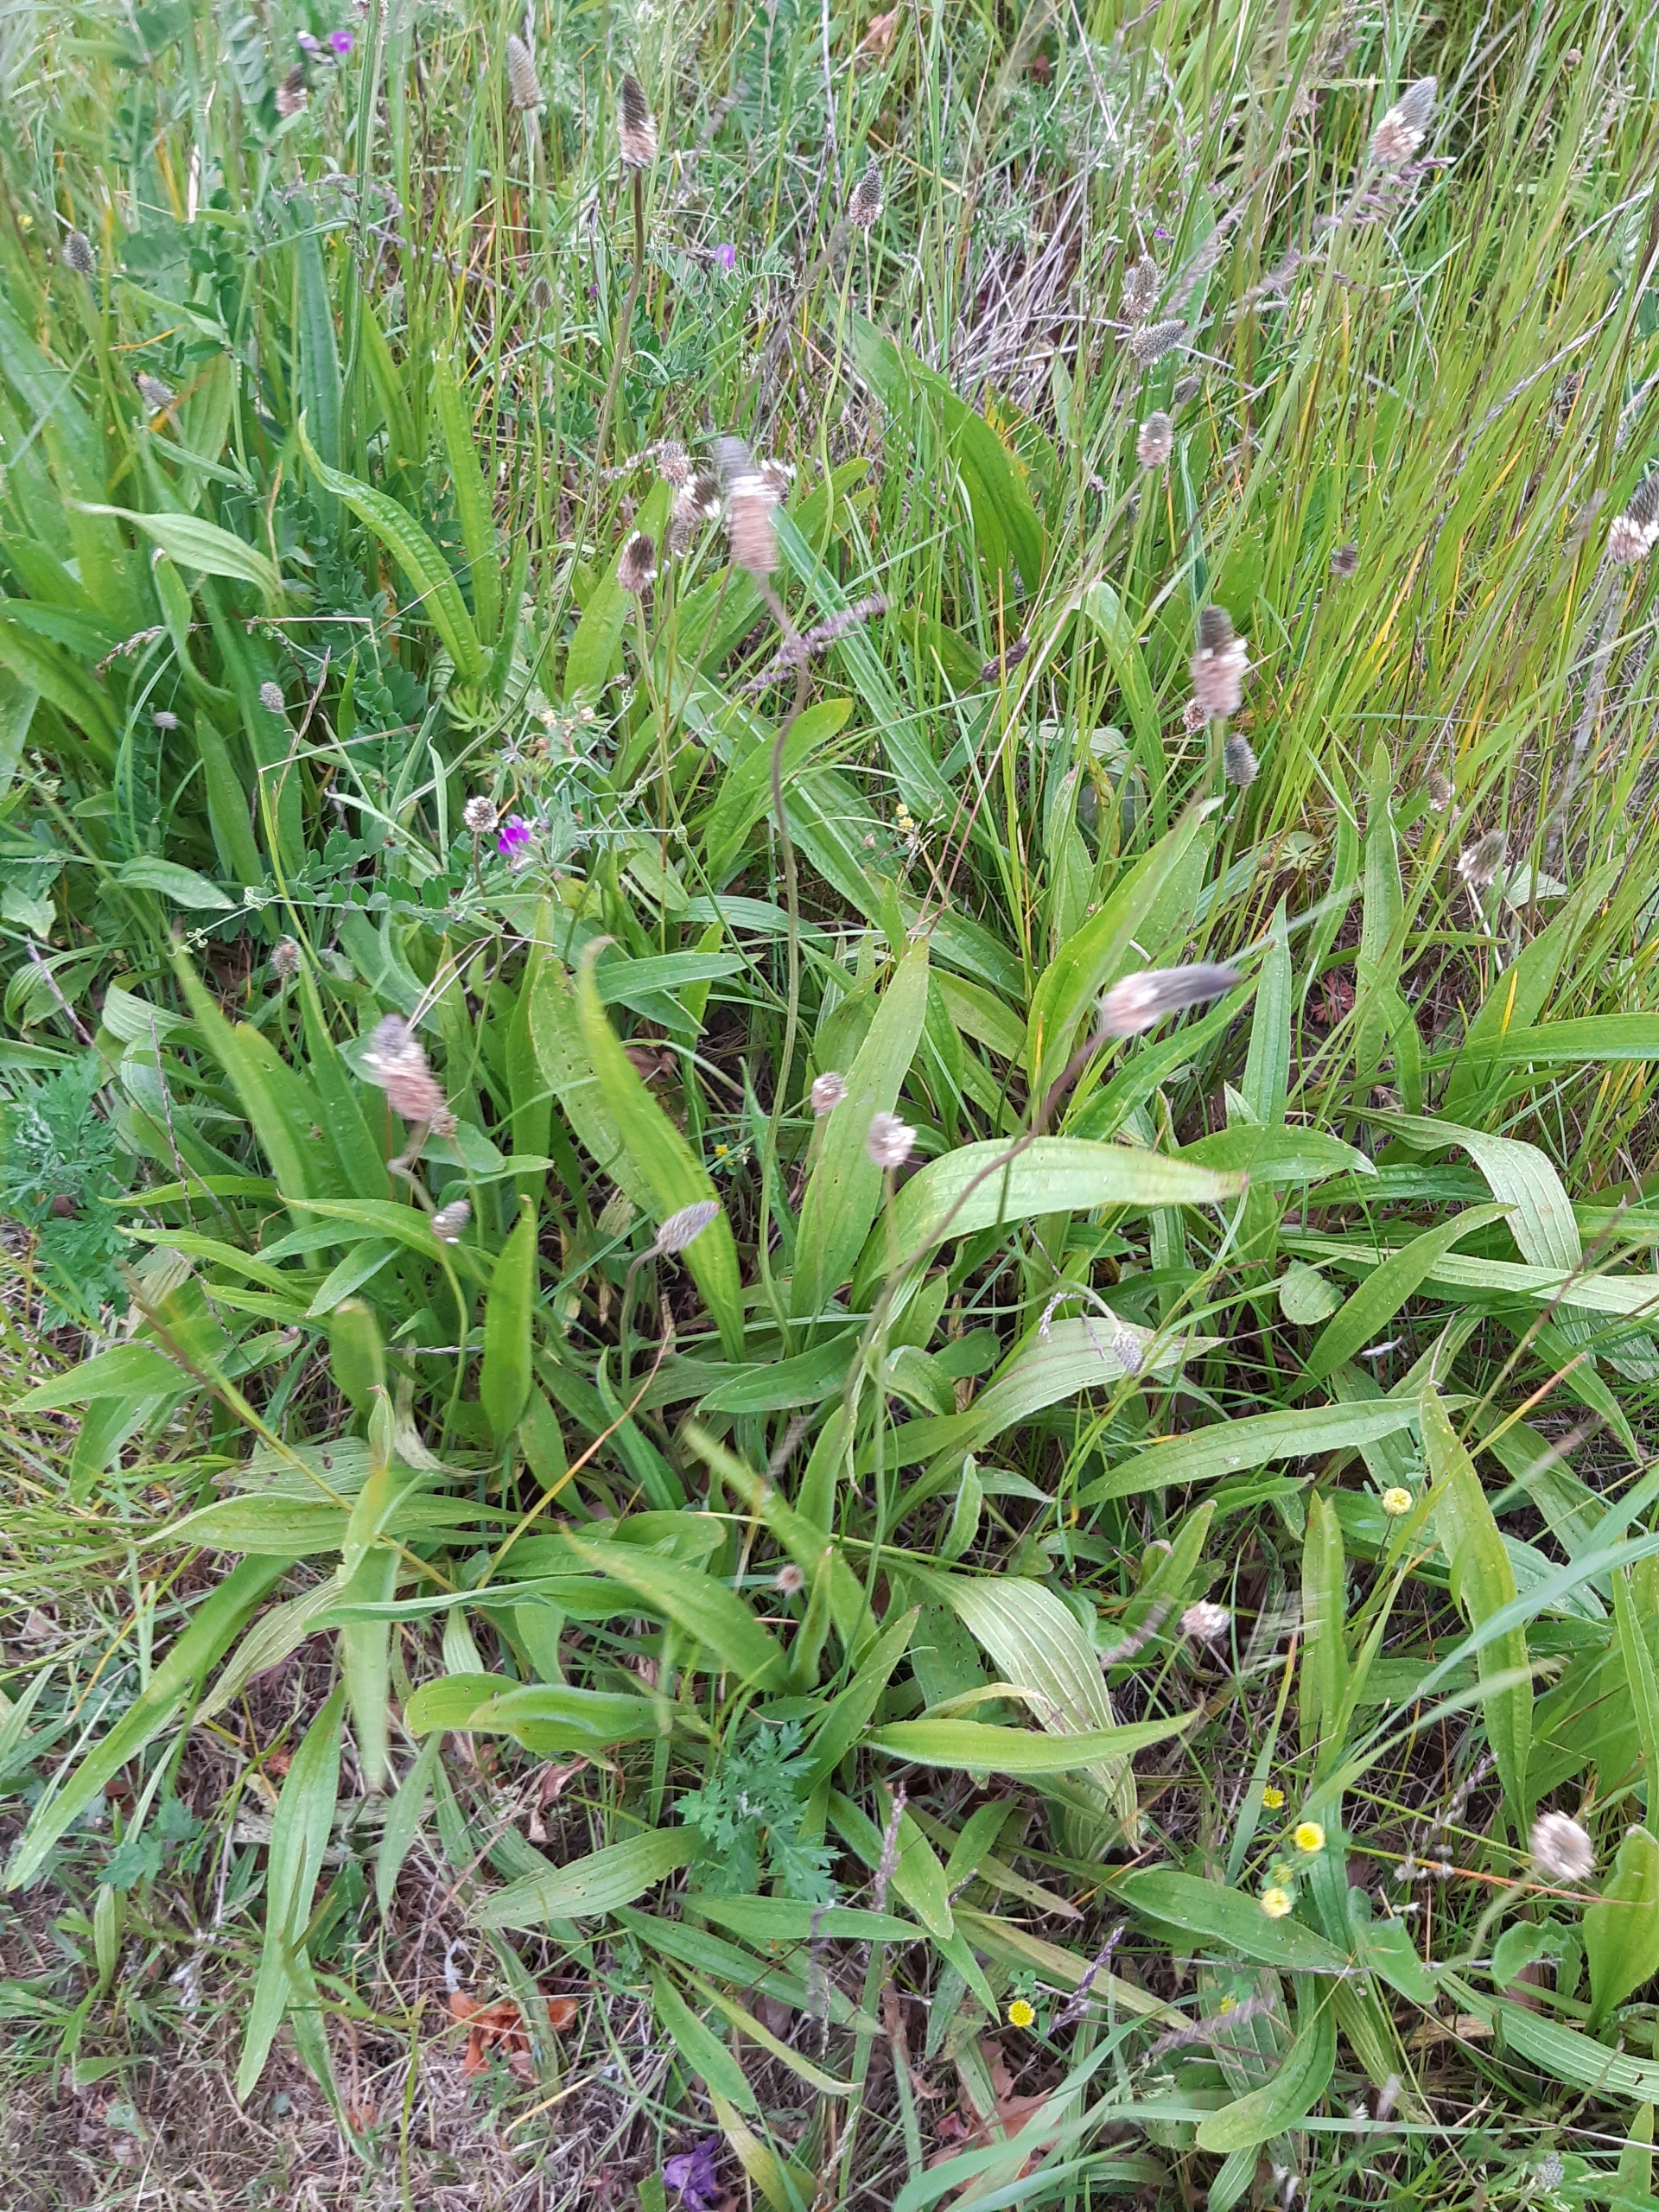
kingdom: Plantae
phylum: Tracheophyta
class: Magnoliopsida
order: Lamiales
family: Plantaginaceae
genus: Plantago
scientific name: Plantago lanceolata
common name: Lancet-vejbred
